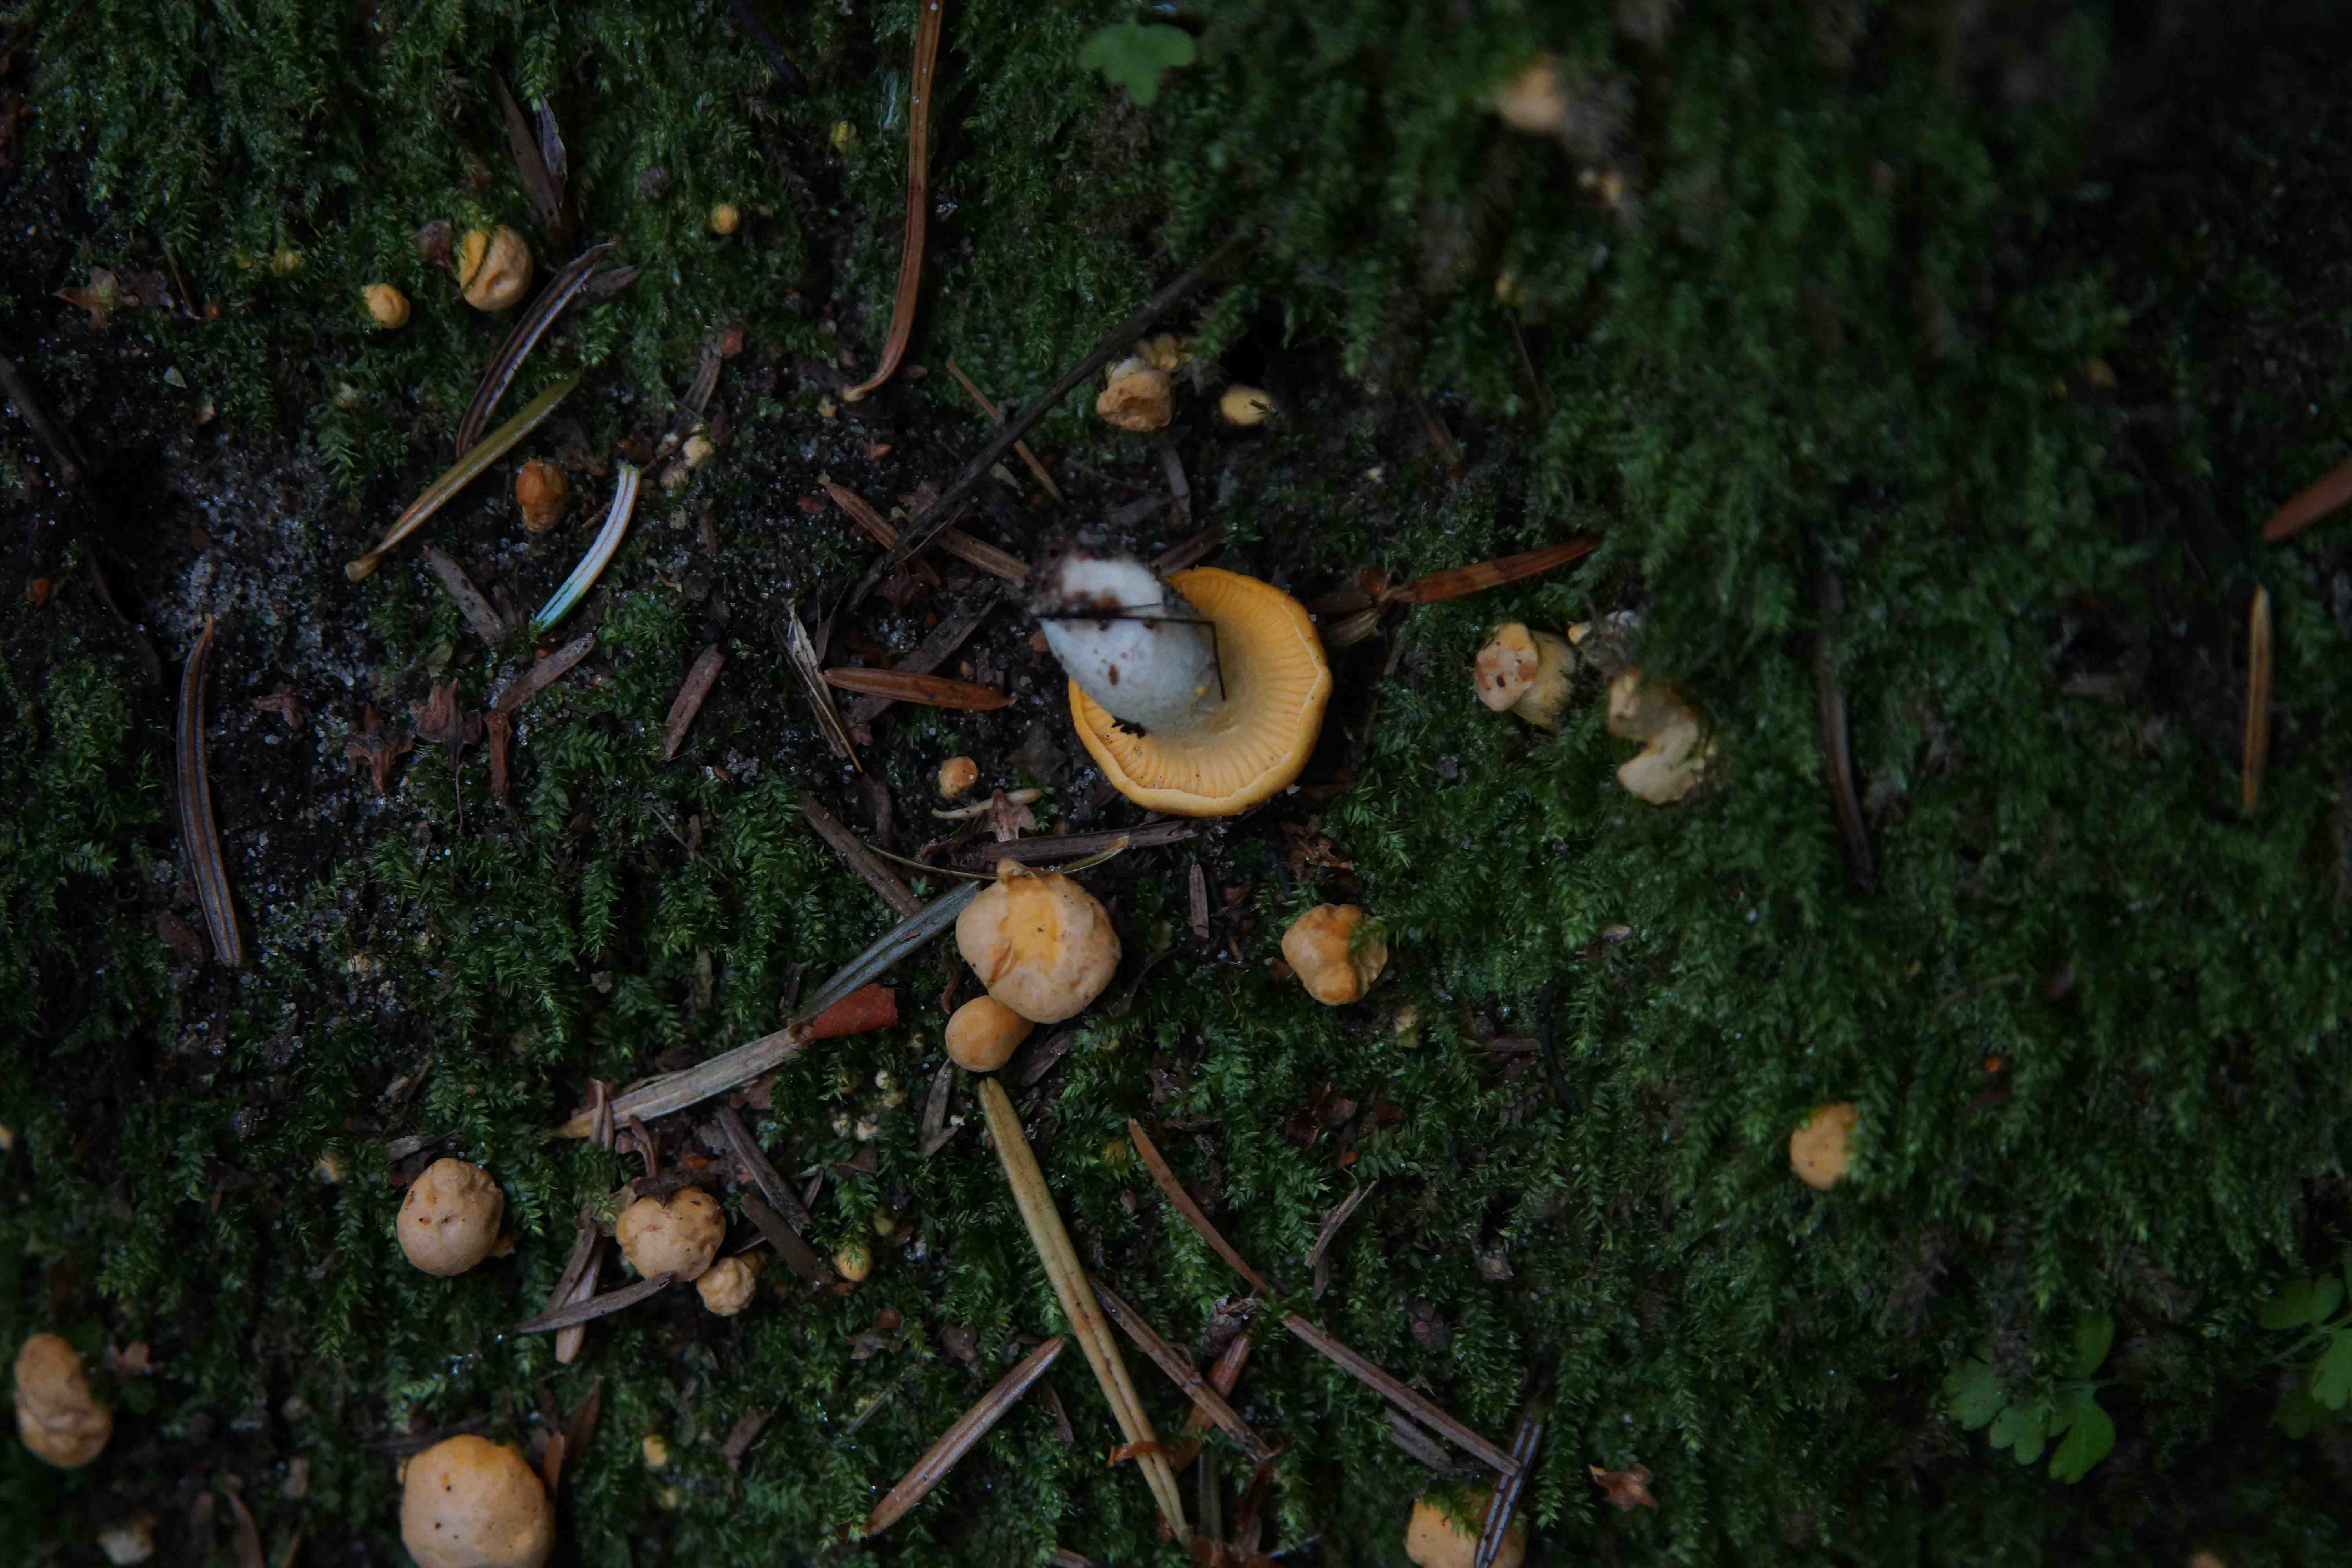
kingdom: Fungi
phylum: Basidiomycota
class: Agaricomycetes
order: Cantharellales
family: Hydnaceae
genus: Cantharellus
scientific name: Cantharellus cibarius
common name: almindelig kantarel
